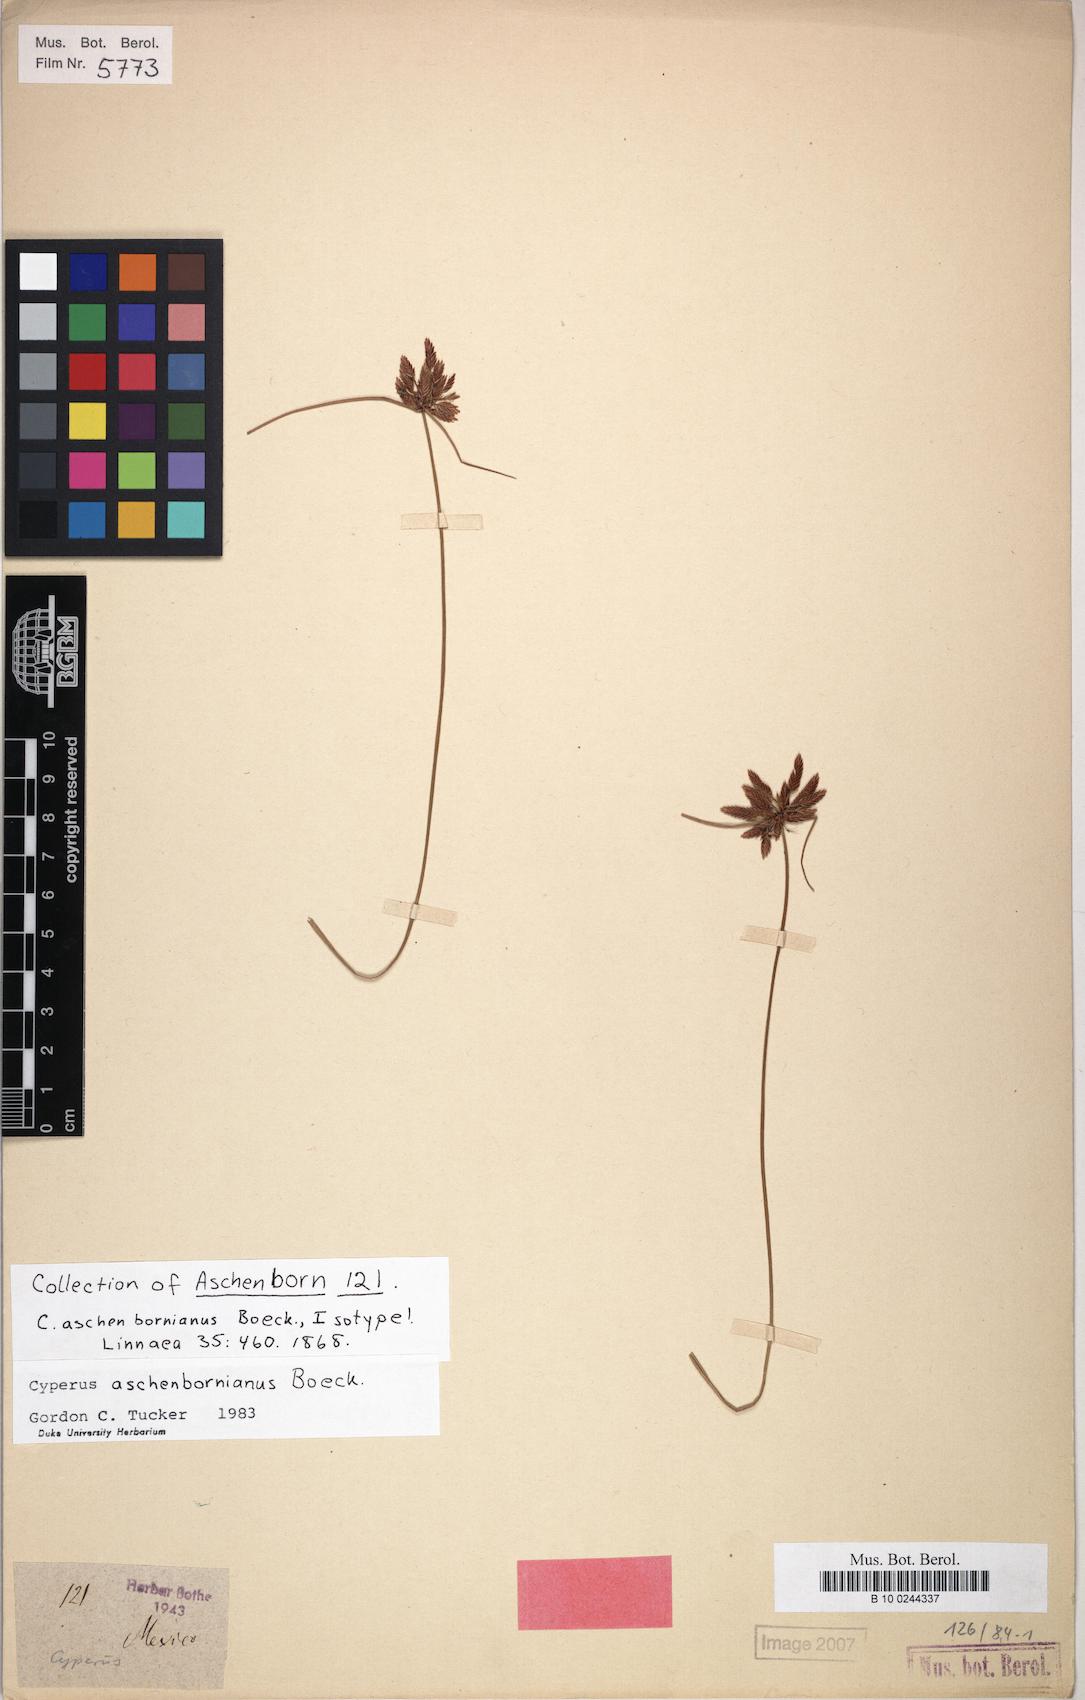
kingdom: Plantae
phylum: Tracheophyta
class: Liliopsida
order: Poales
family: Cyperaceae
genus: Cyperus
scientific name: Cyperus aschenbornianus
